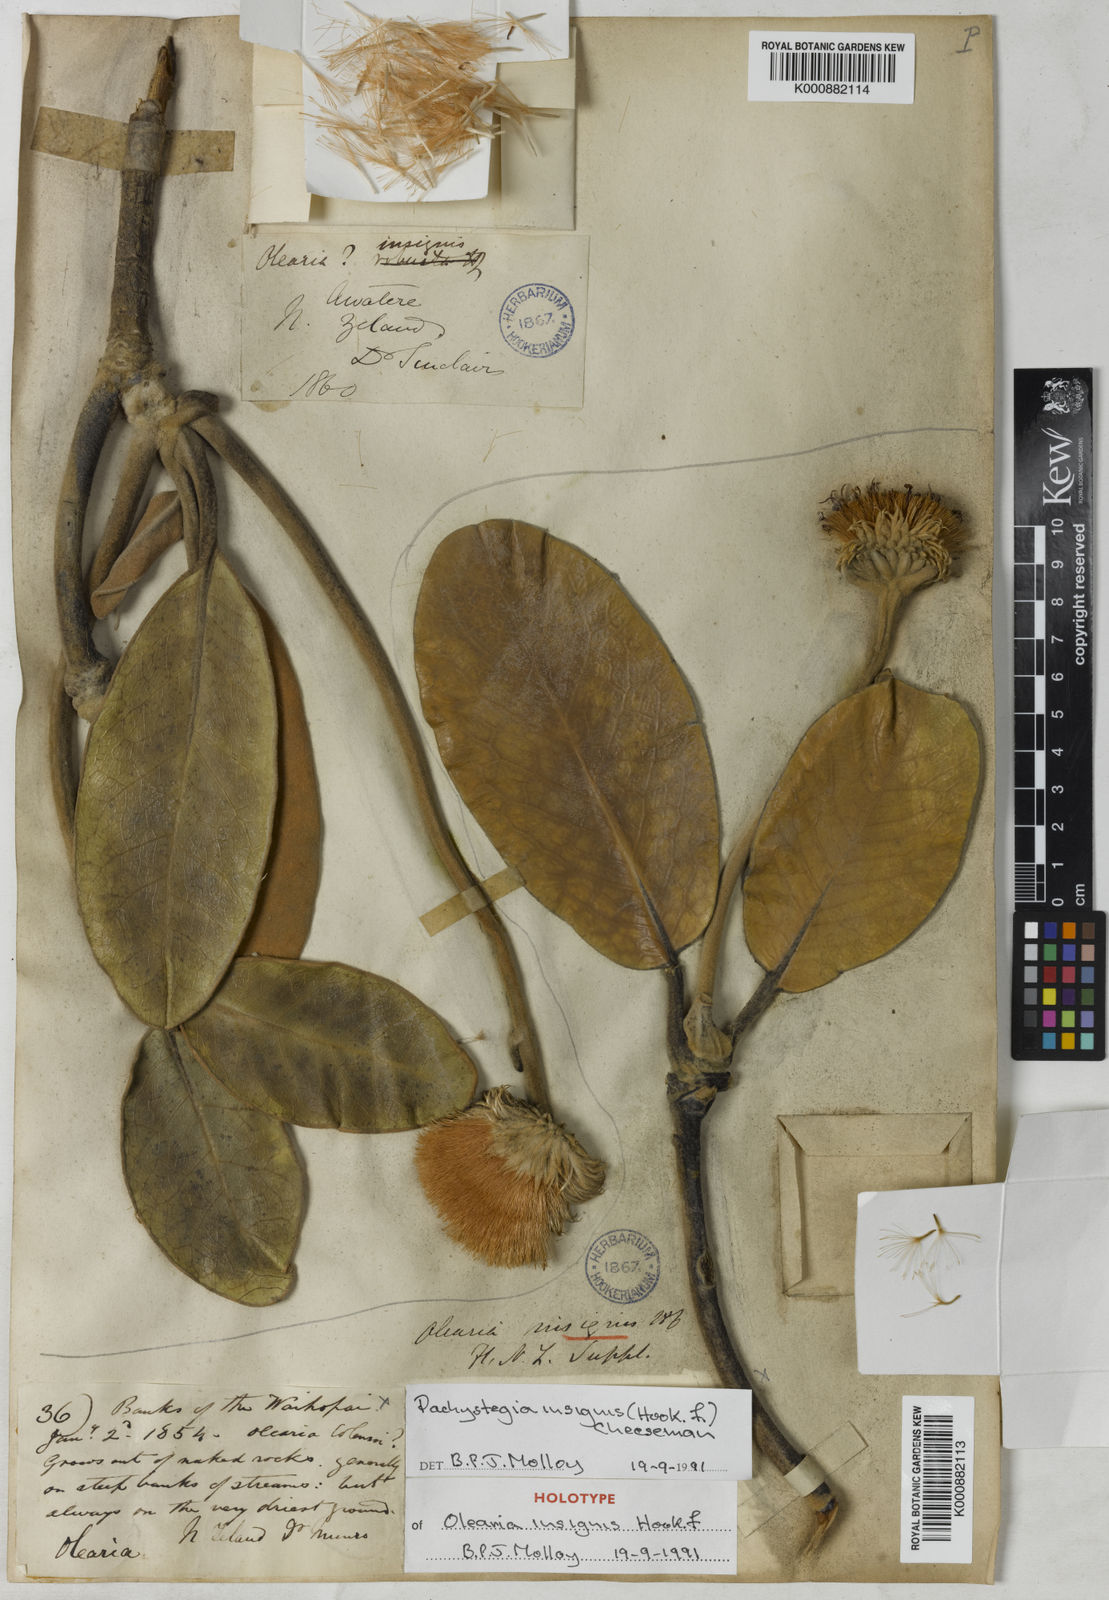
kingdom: Plantae
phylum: Tracheophyta
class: Magnoliopsida
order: Asterales
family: Asteraceae
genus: Pachystegia
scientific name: Pachystegia insignis
